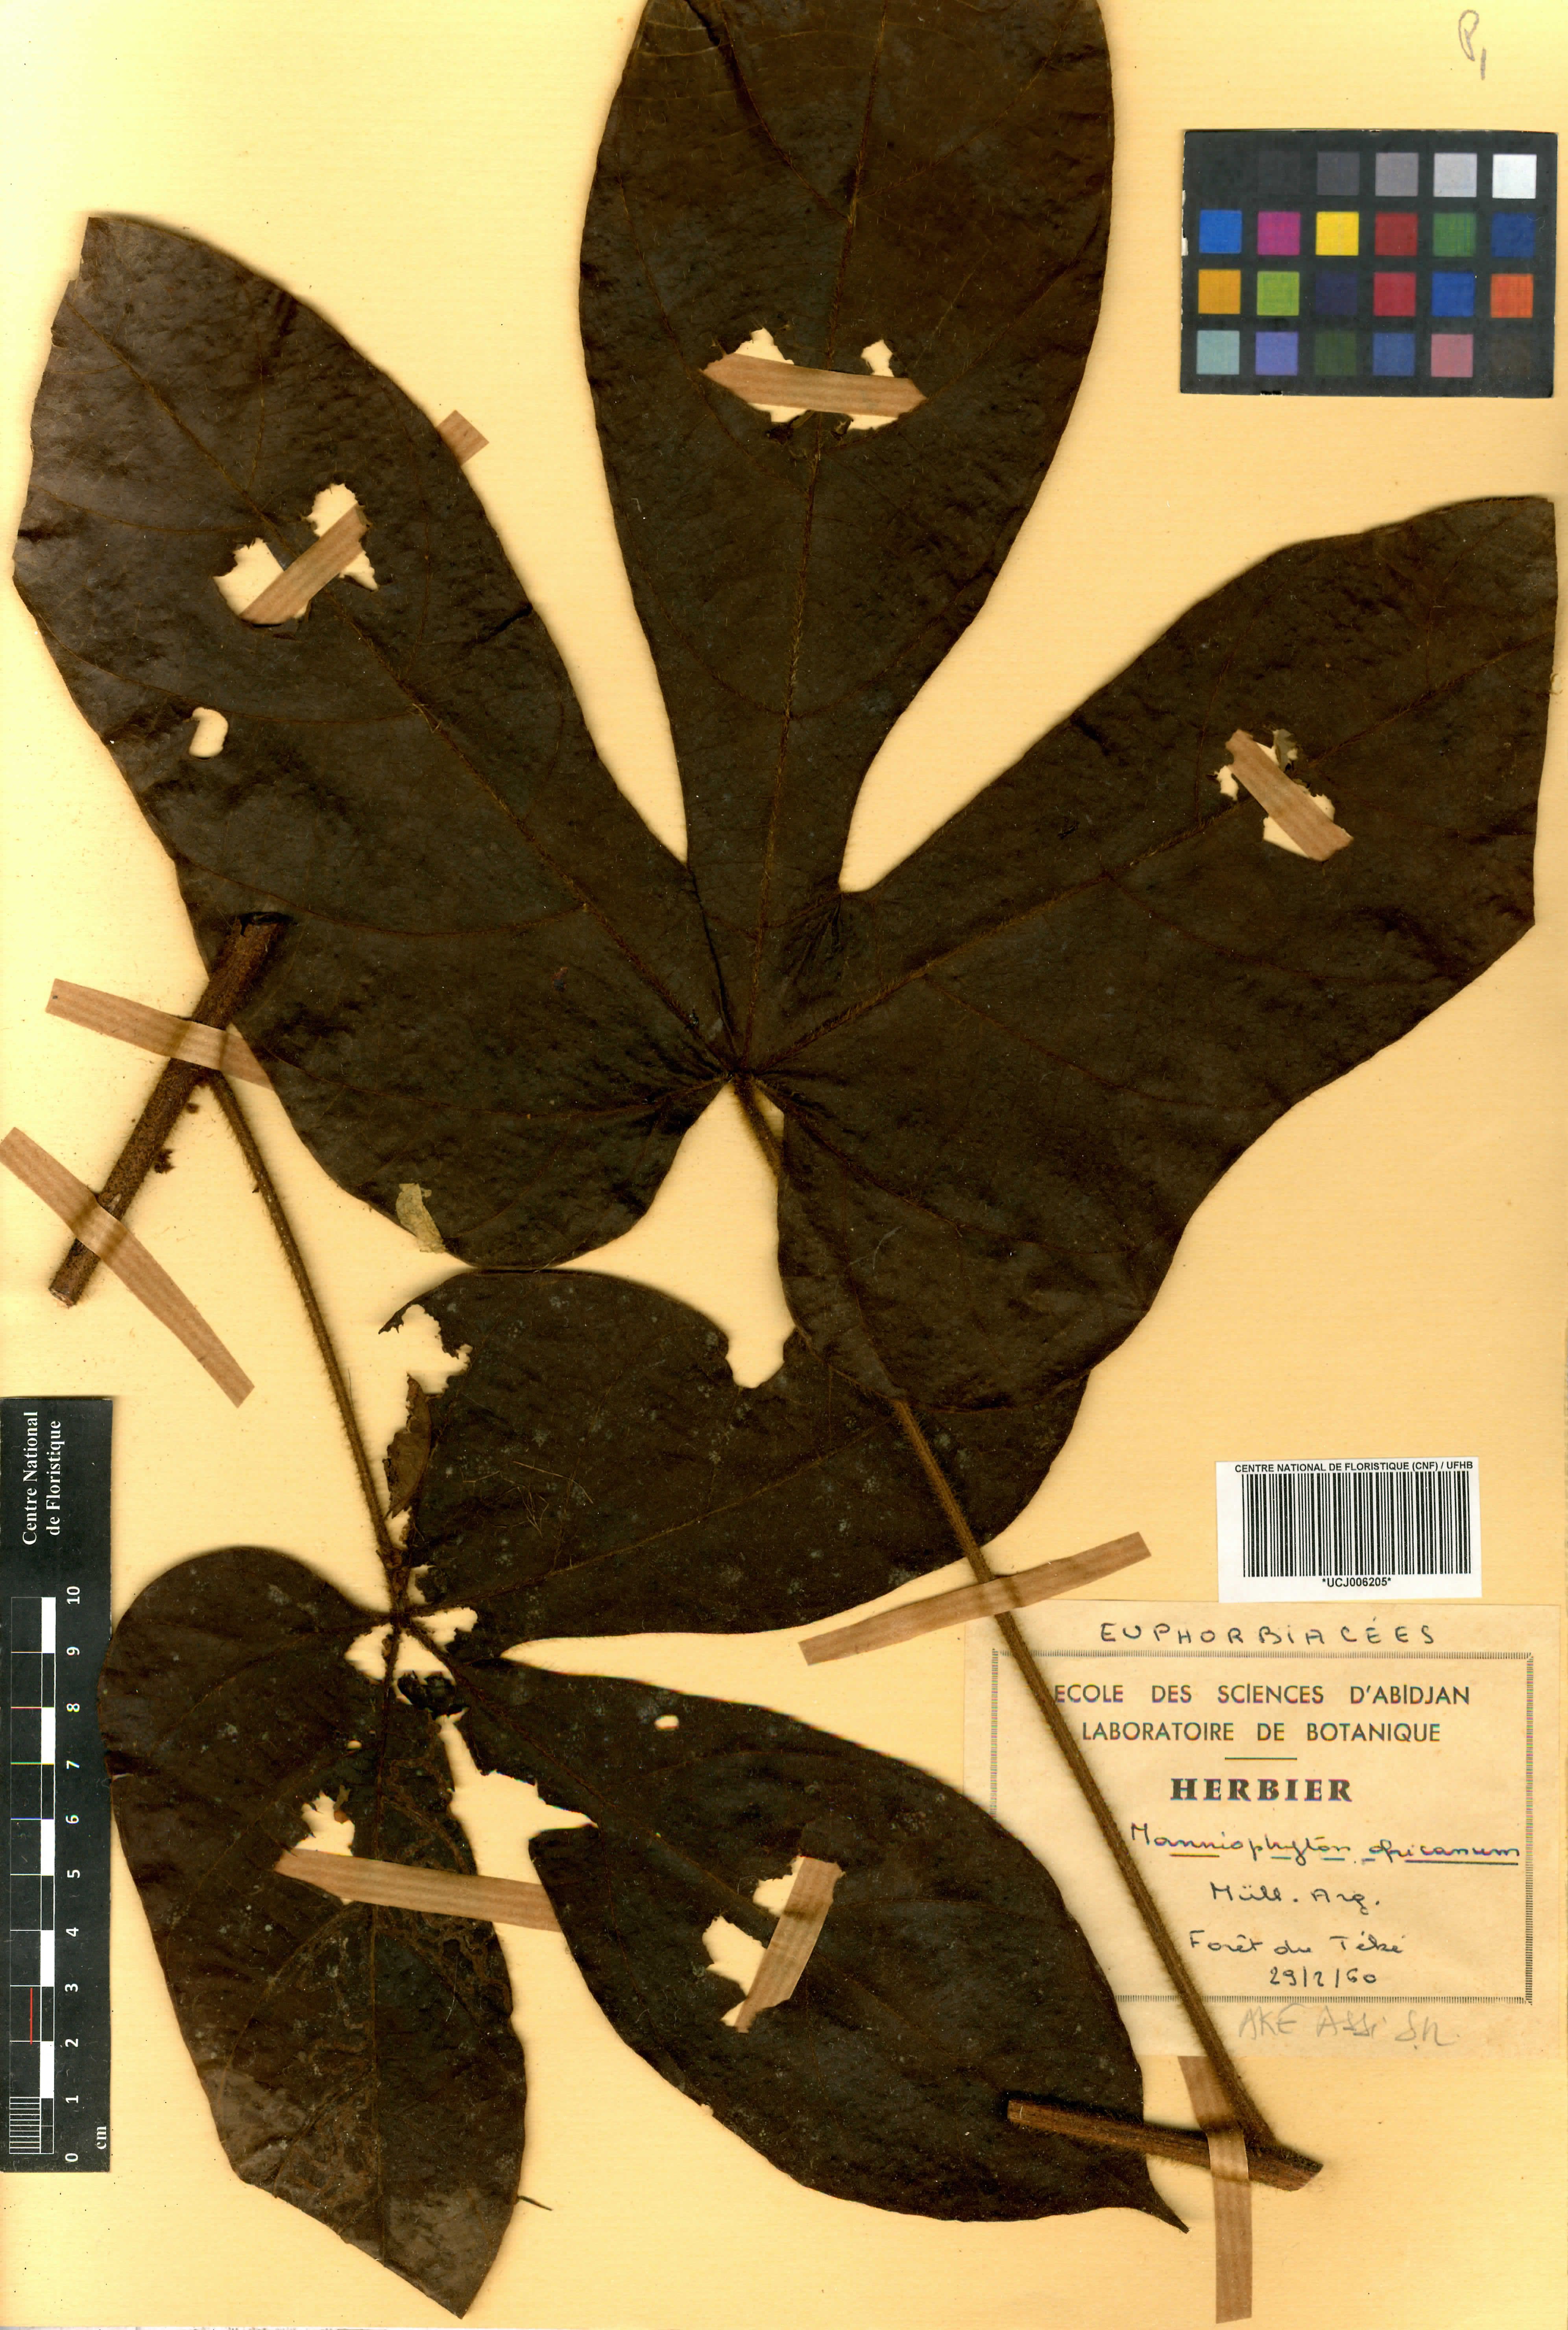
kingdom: Plantae
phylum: Tracheophyta
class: Magnoliopsida
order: Malpighiales
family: Euphorbiaceae
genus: Manniophyton
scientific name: Manniophyton fulvum
